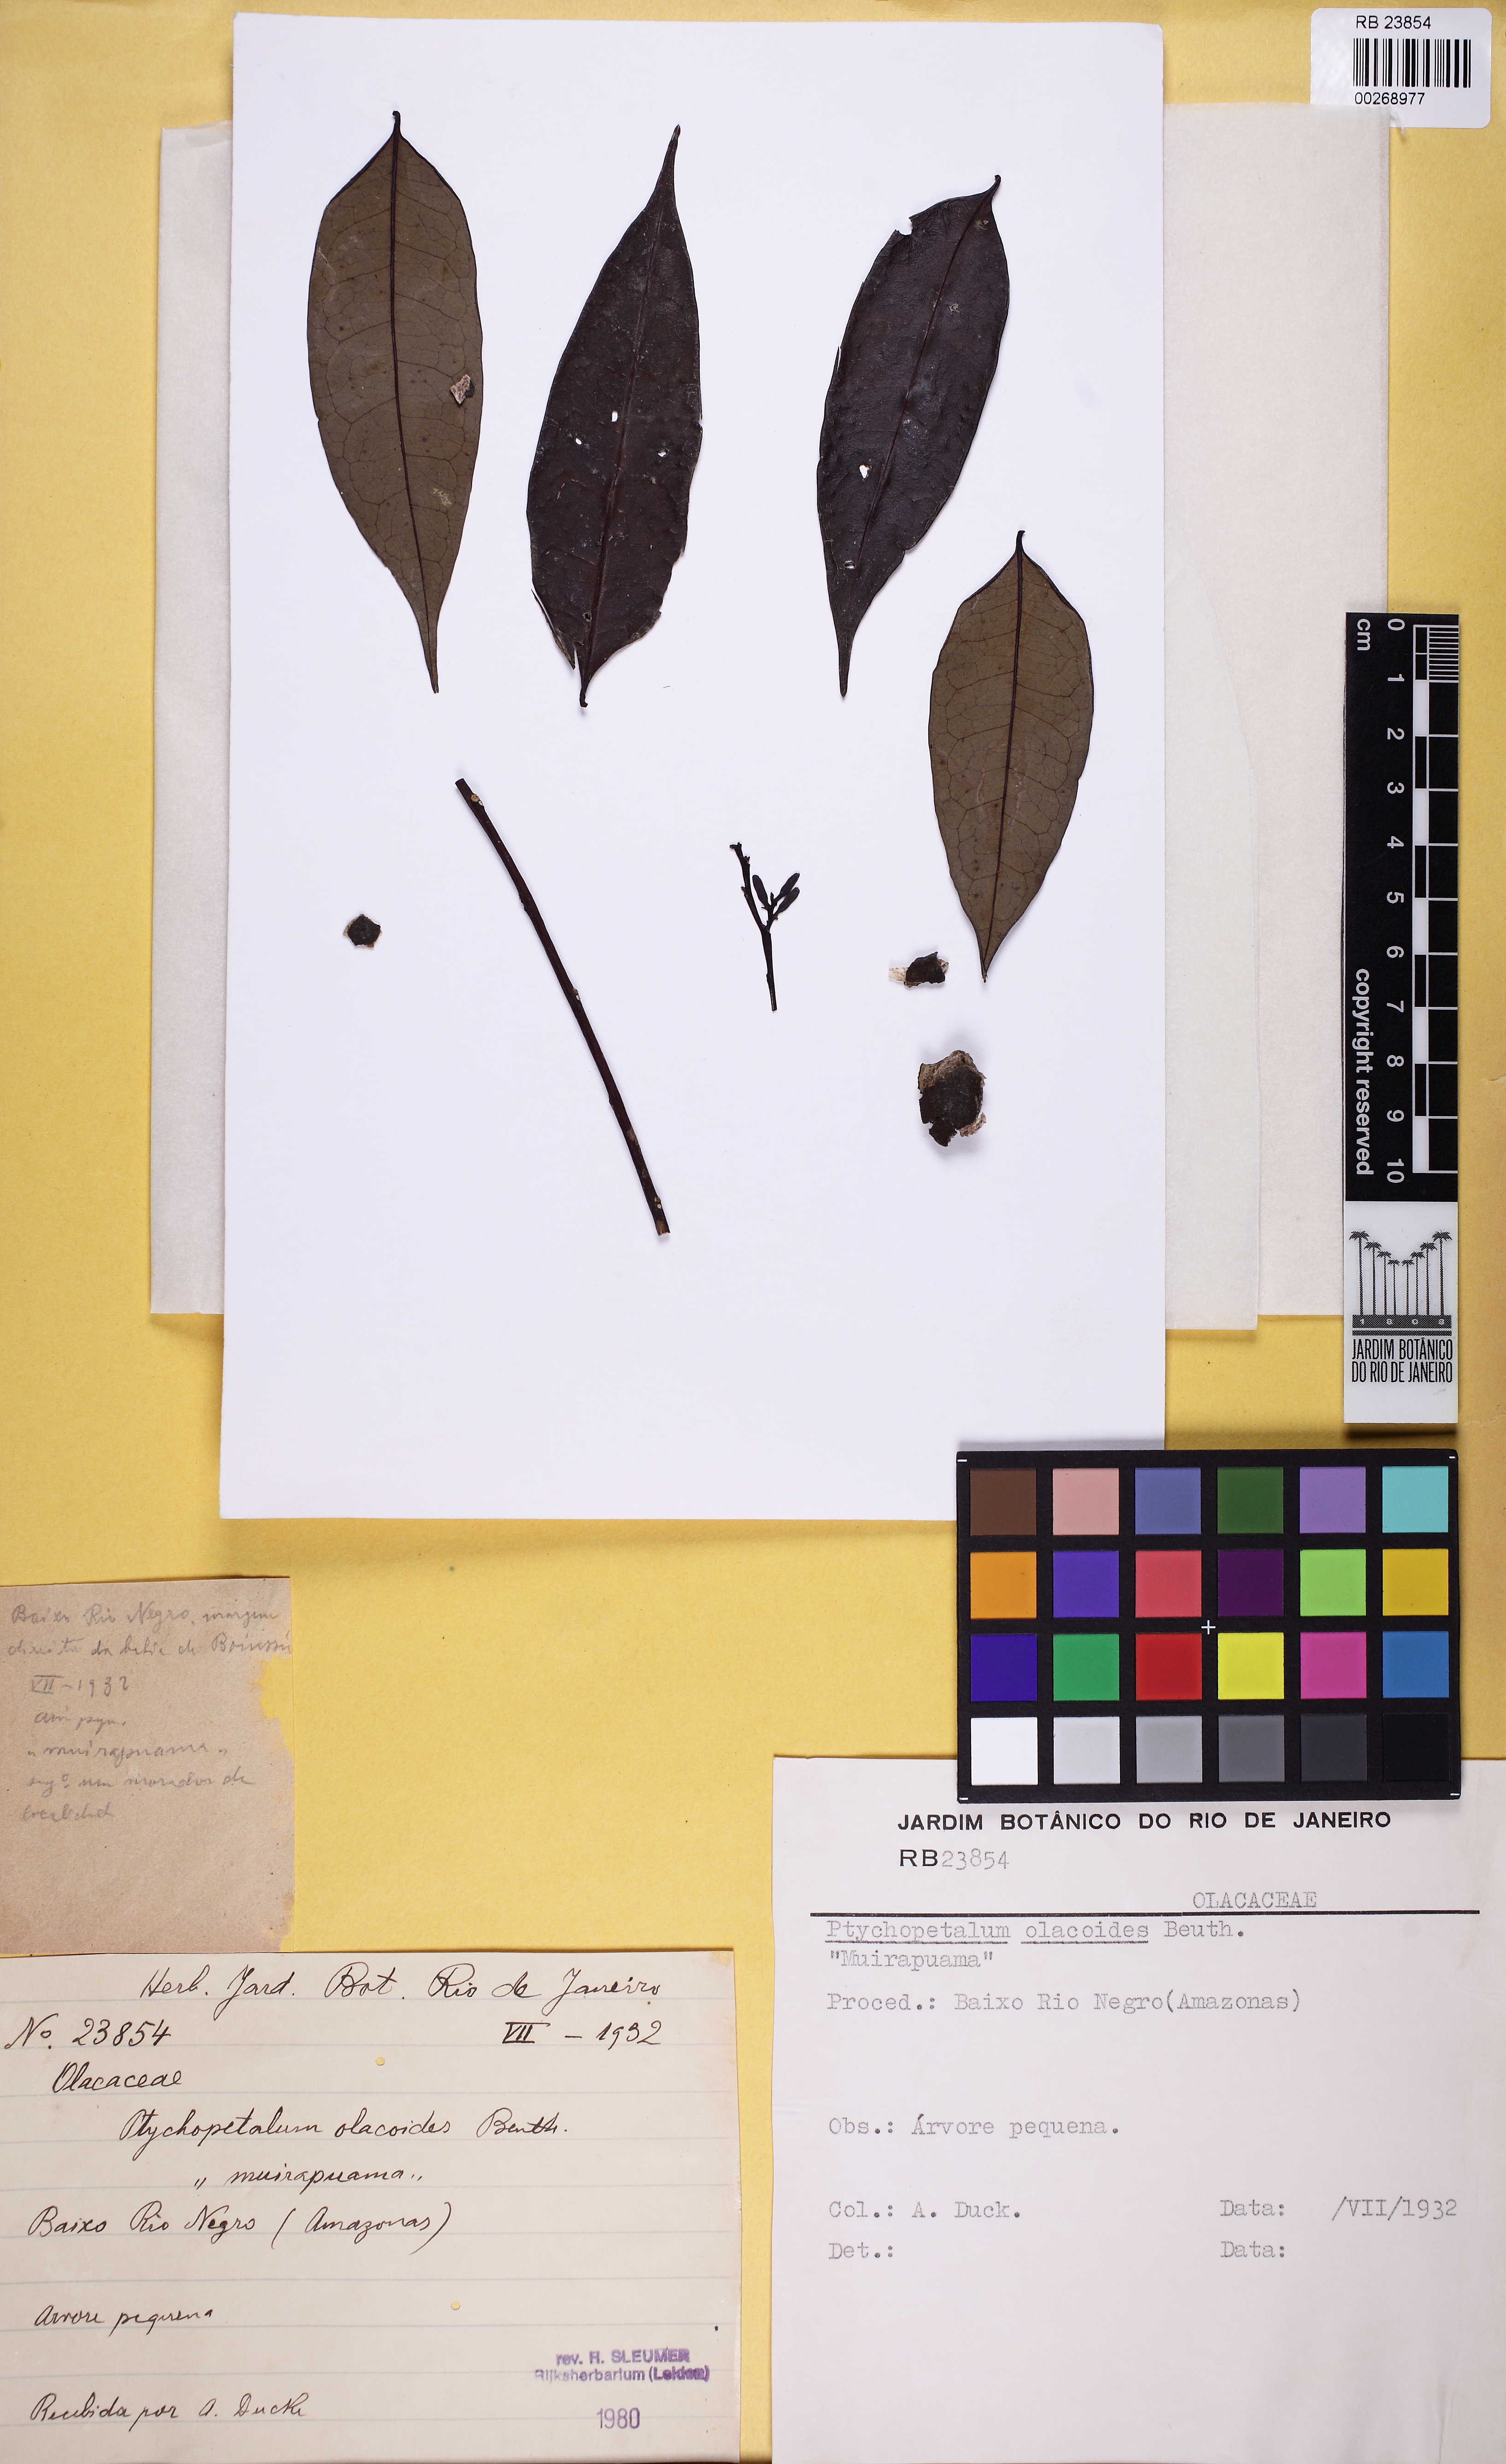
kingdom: Plantae
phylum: Tracheophyta
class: Magnoliopsida
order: Santalales
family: Olacaceae
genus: Ptychopetalum
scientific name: Ptychopetalum olacoides
